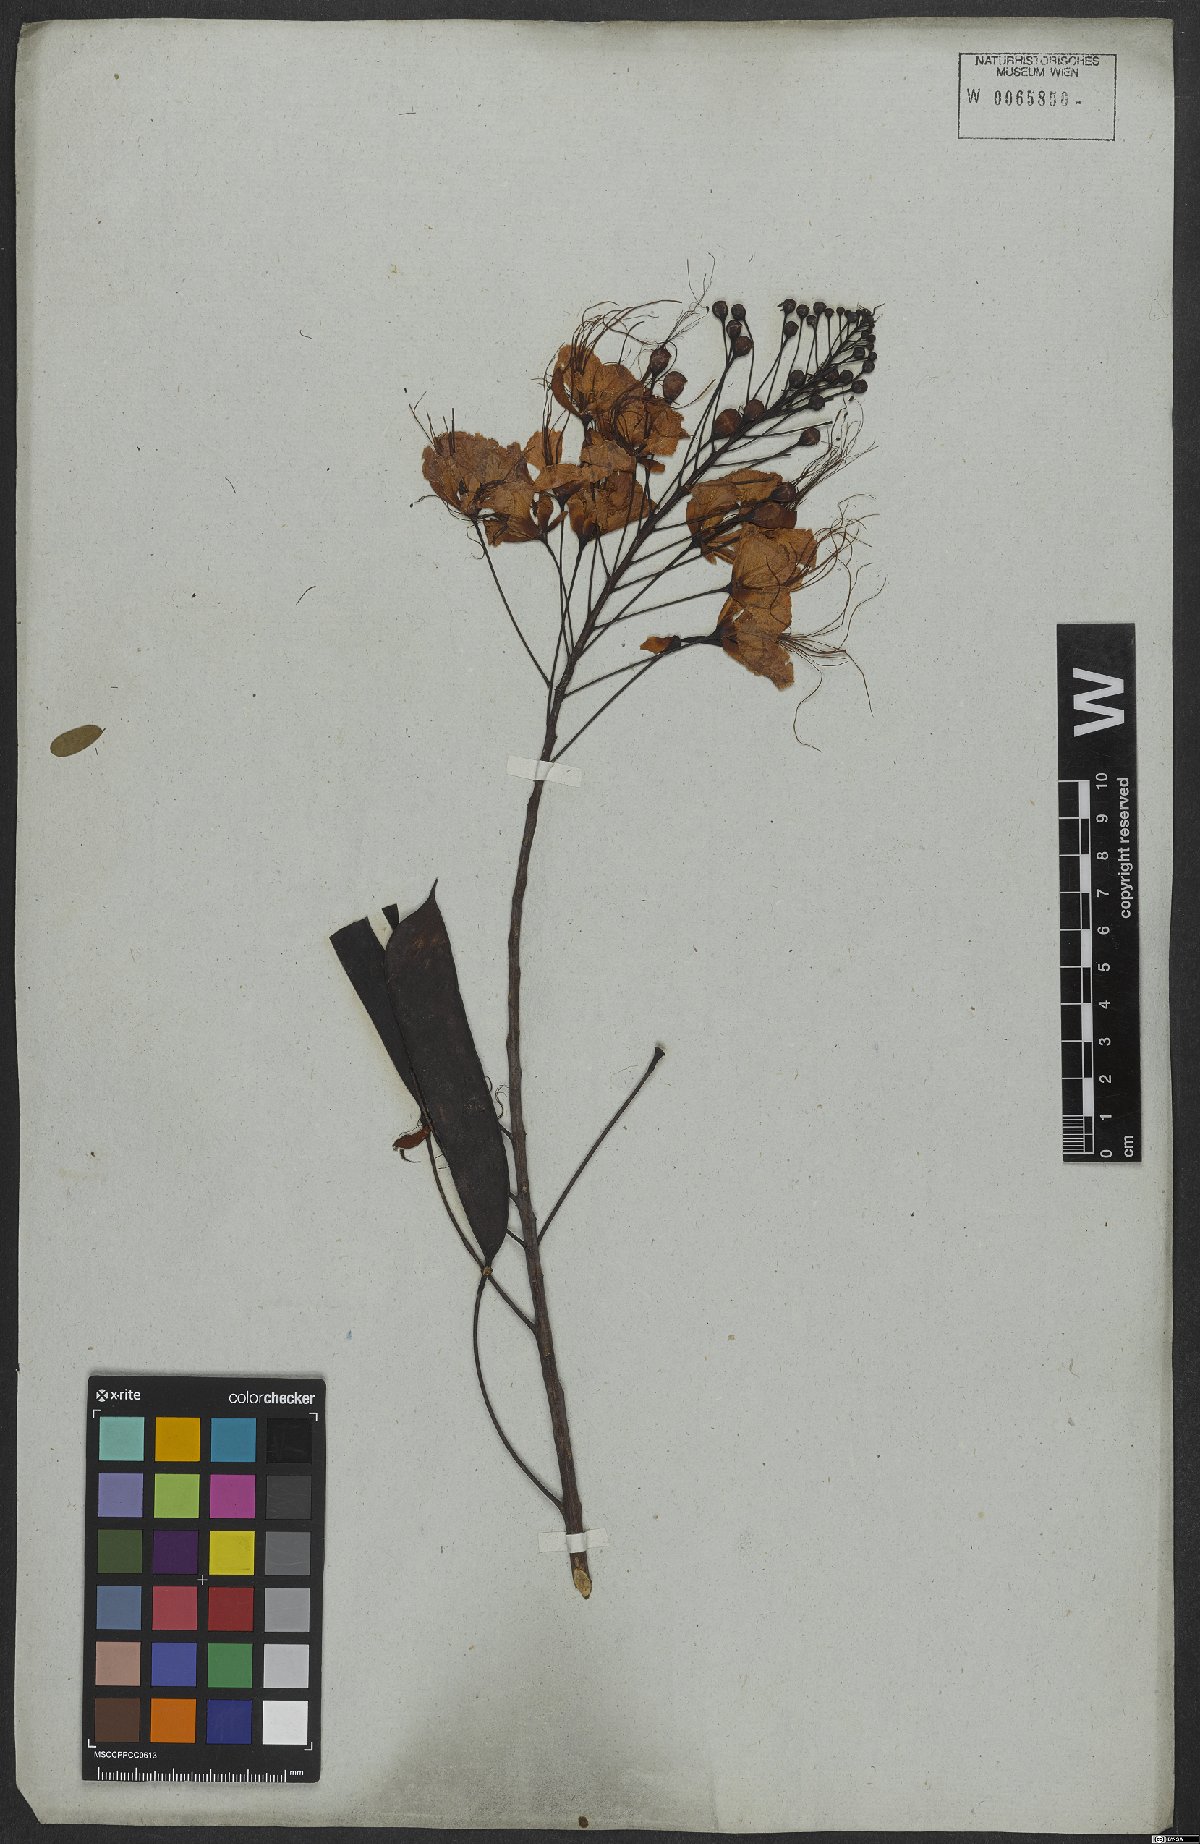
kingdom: Plantae
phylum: Tracheophyta
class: Magnoliopsida
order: Fabales
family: Fabaceae
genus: Caesalpinia
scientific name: Caesalpinia pulcherrima
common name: Pride-of-barbados
